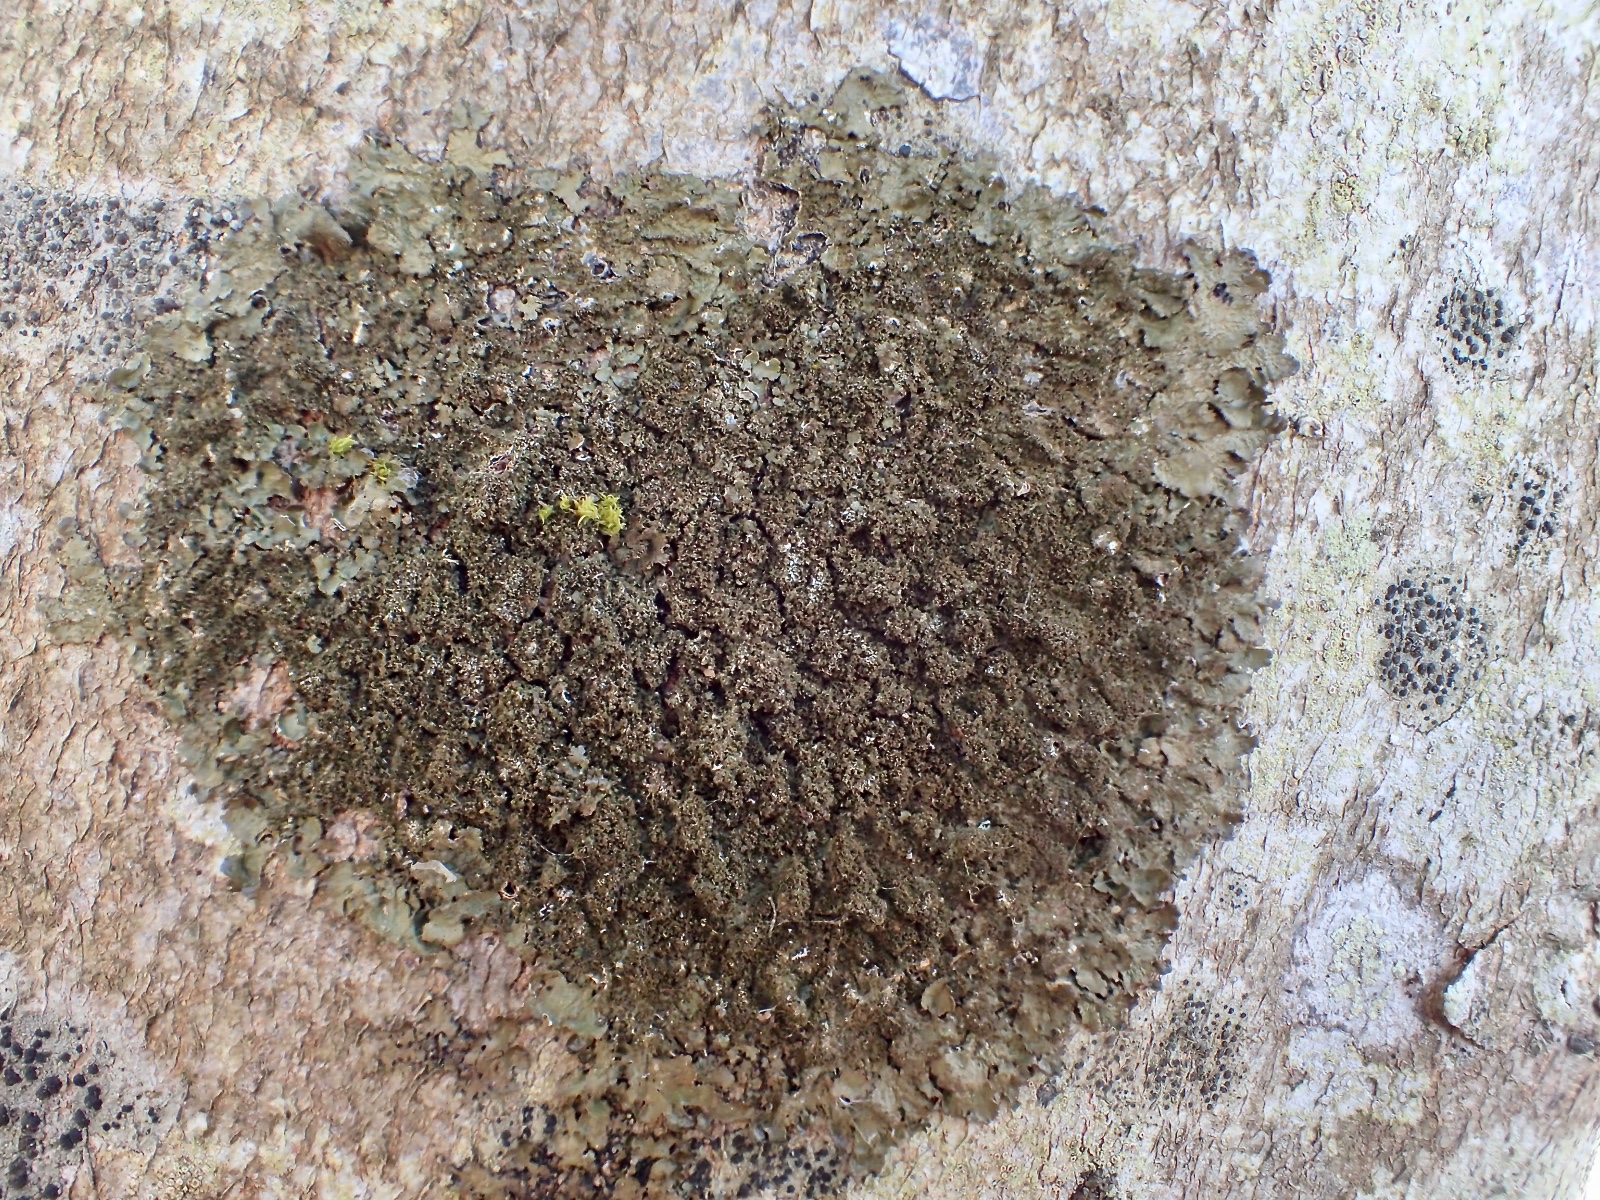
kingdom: Fungi
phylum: Ascomycota
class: Lecanoromycetes
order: Lecanorales
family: Parmeliaceae
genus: Melanelixia
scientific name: Melanelixia glabratula
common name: glinsende skållav
